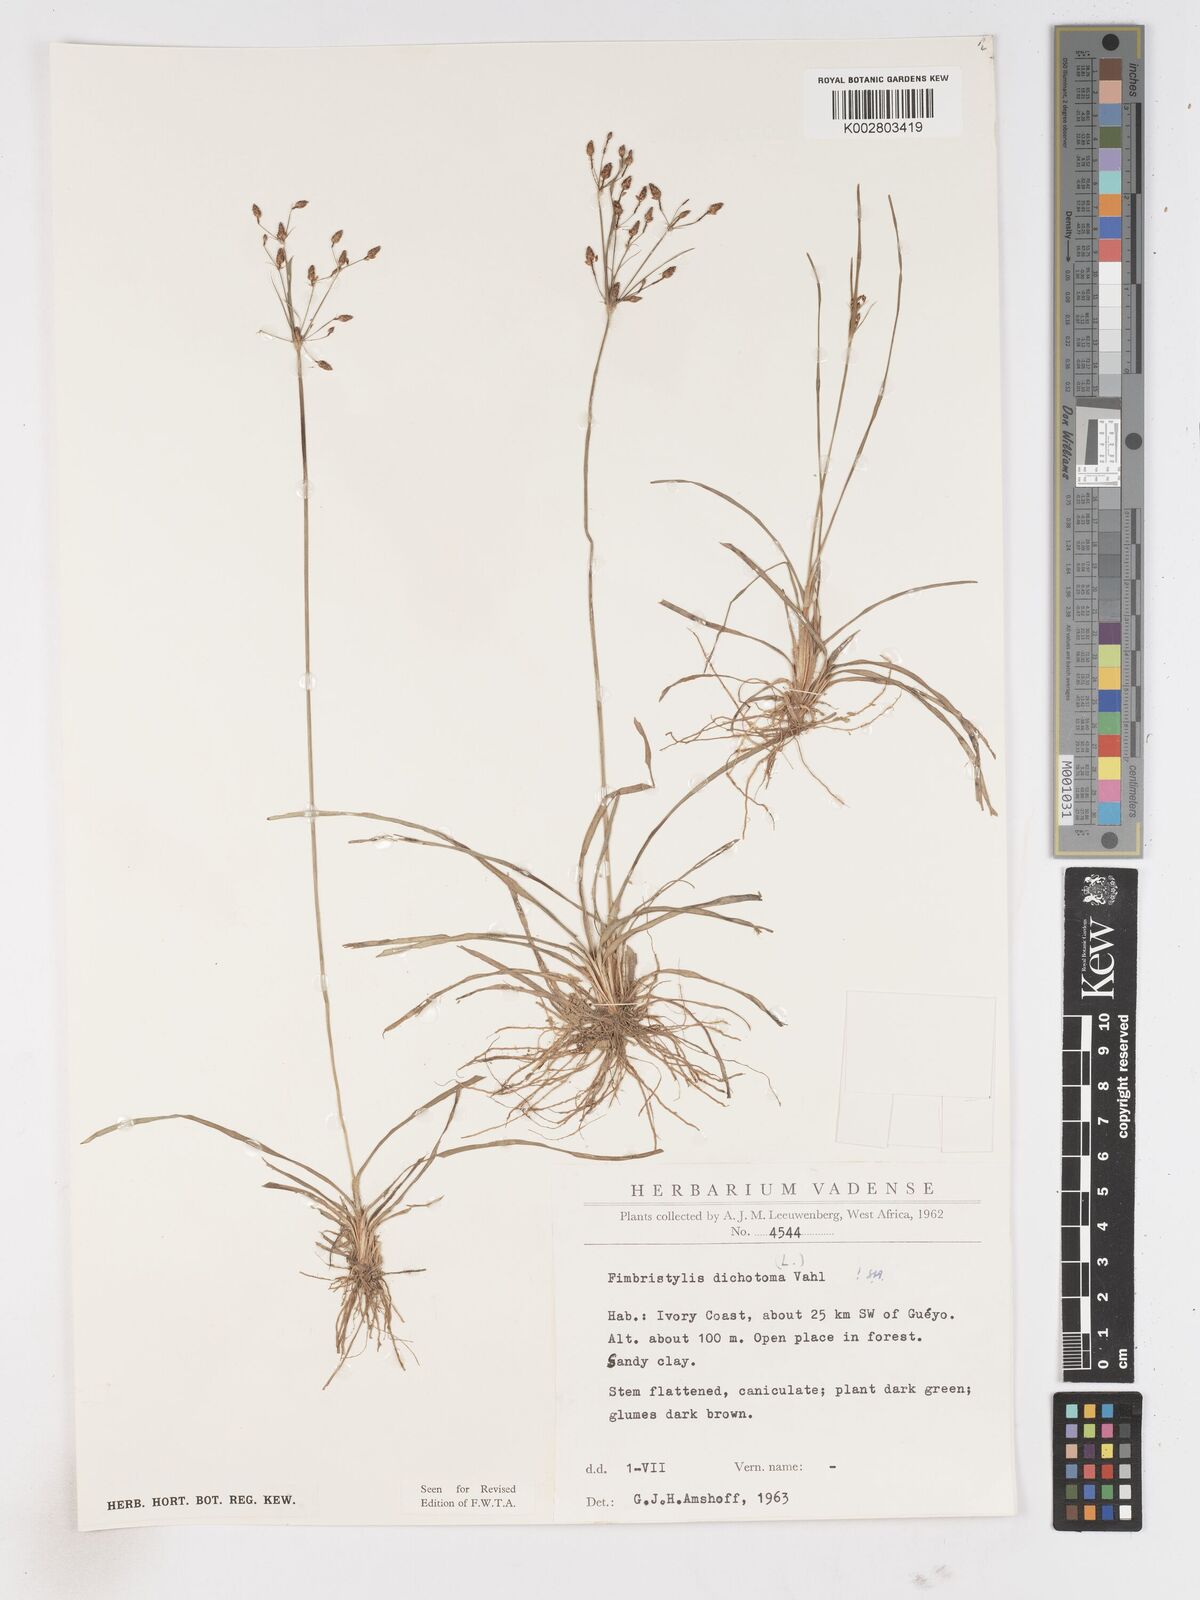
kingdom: Plantae
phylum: Tracheophyta
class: Liliopsida
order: Poales
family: Cyperaceae
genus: Fimbristylis
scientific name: Fimbristylis dichotoma
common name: Forked fimbry
